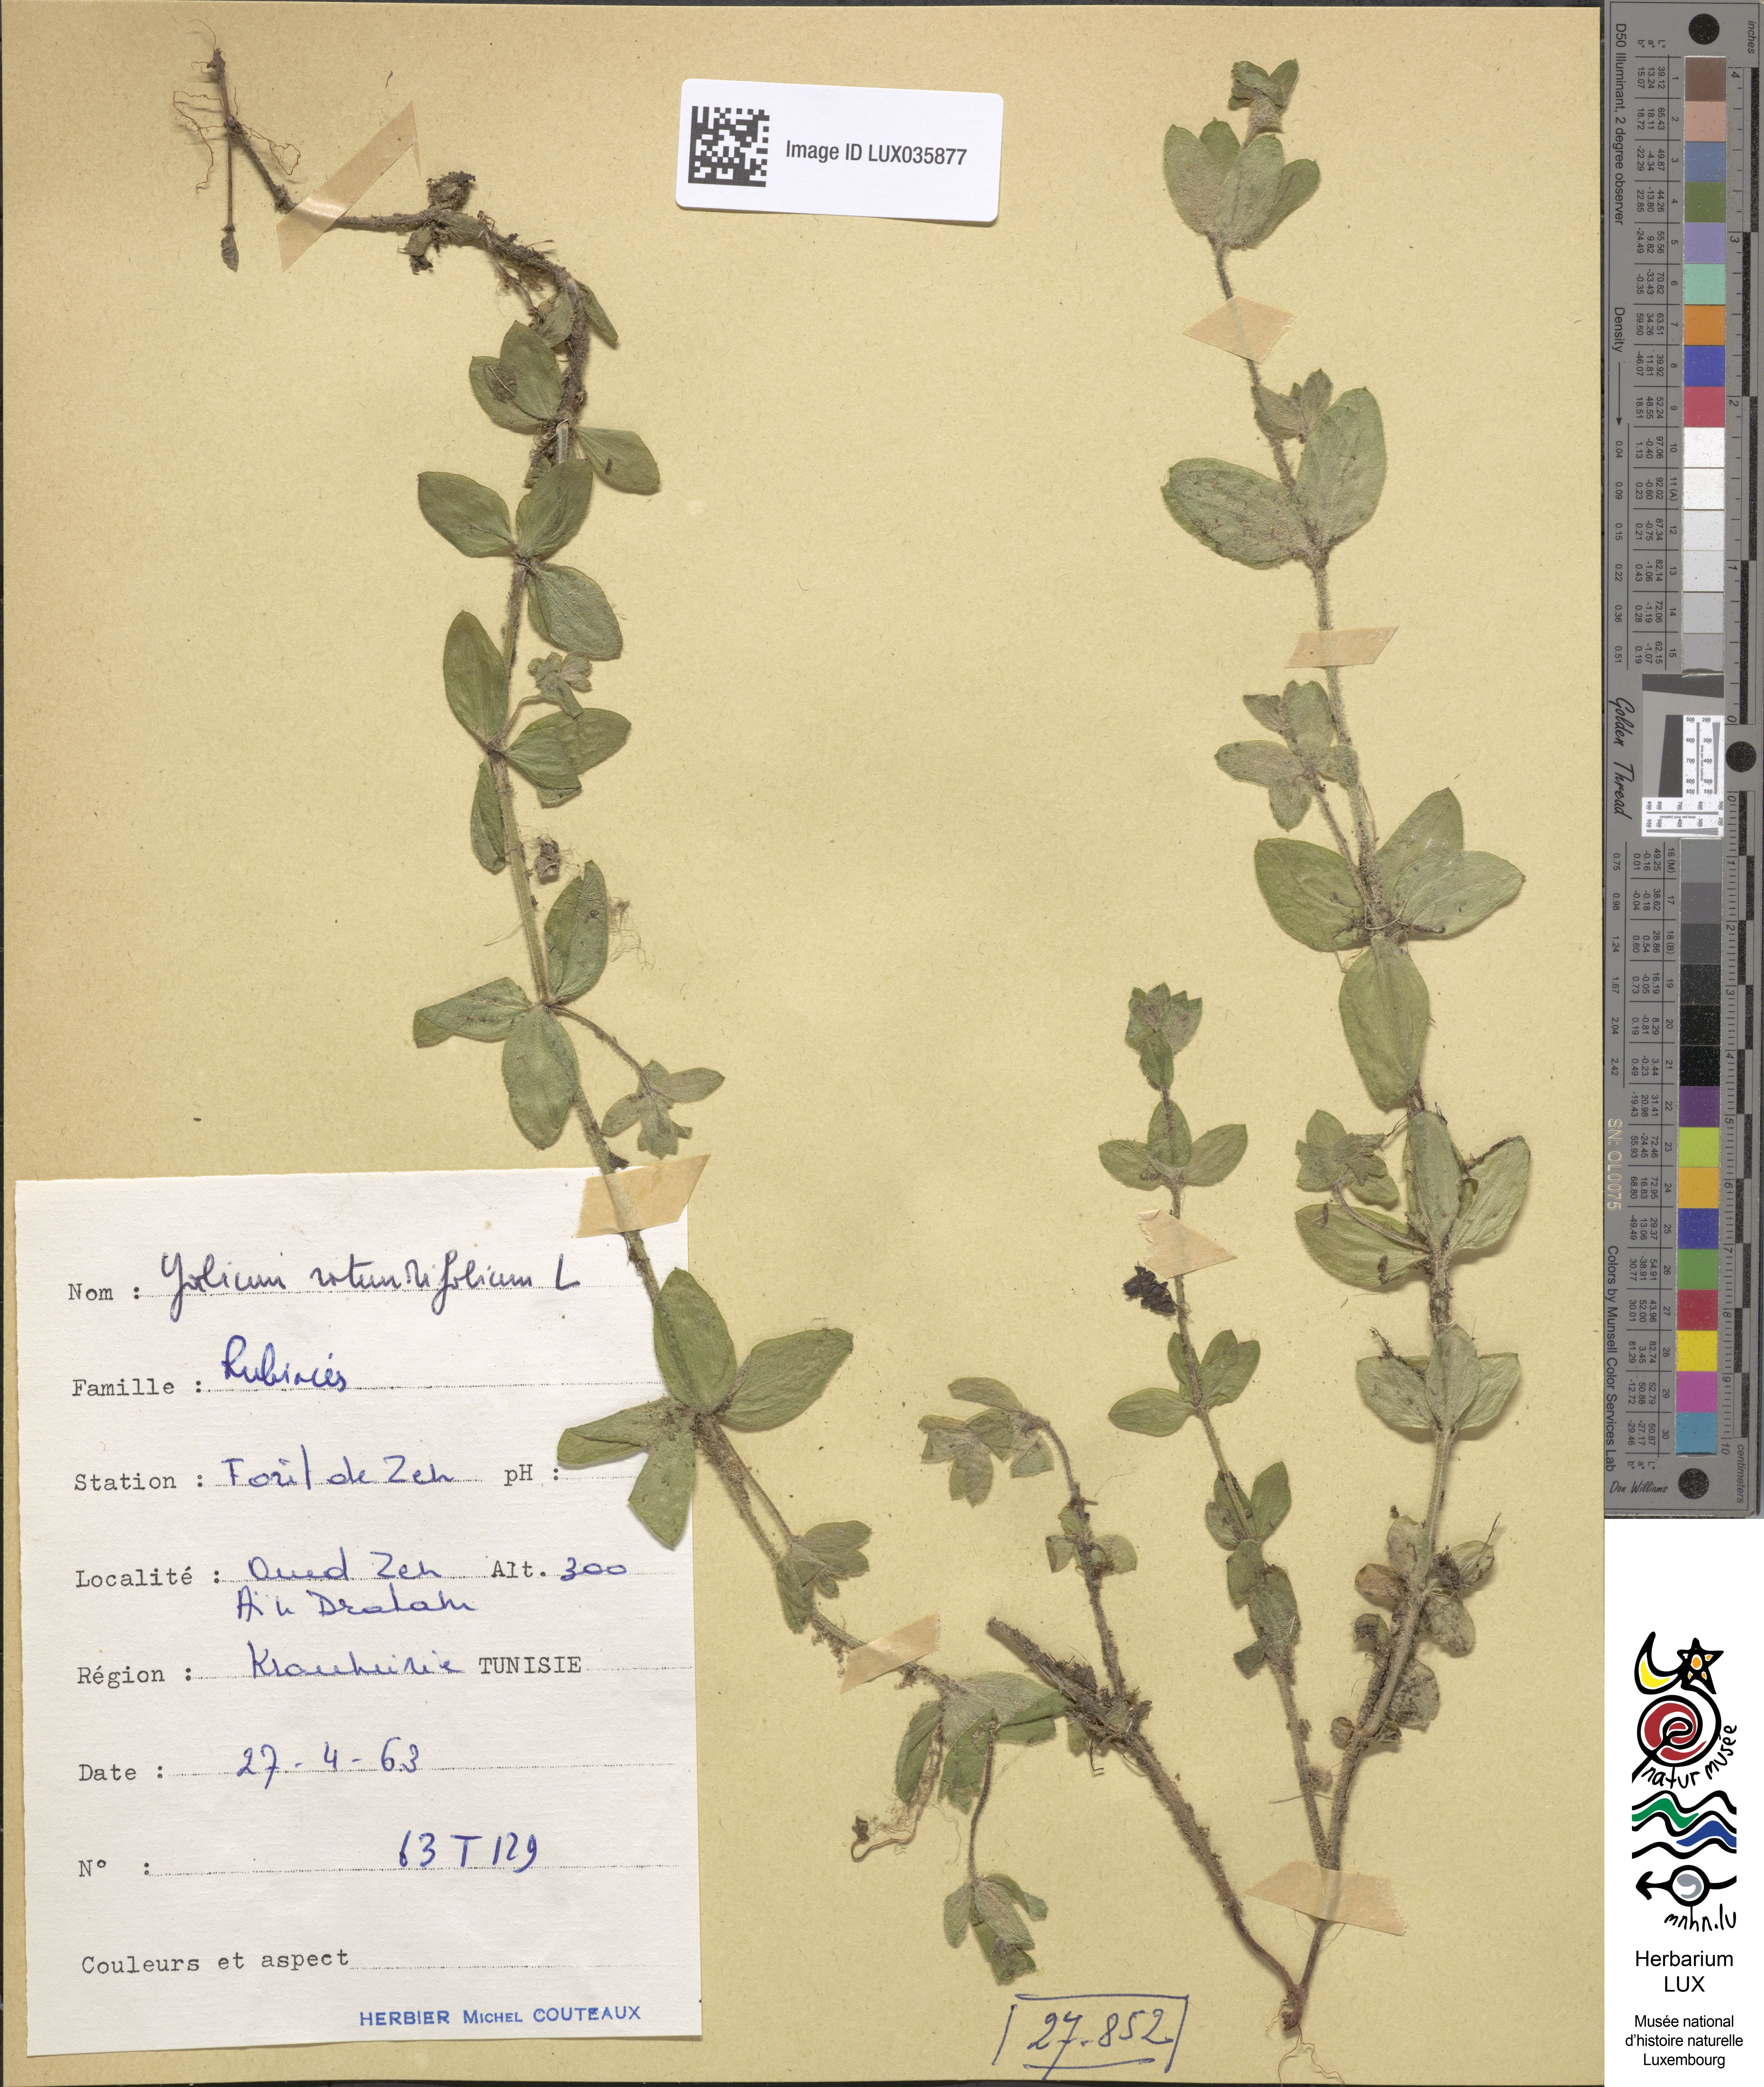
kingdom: Plantae
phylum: Tracheophyta
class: Magnoliopsida
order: Gentianales
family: Rubiaceae
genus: Galium
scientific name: Galium rotundifolium
